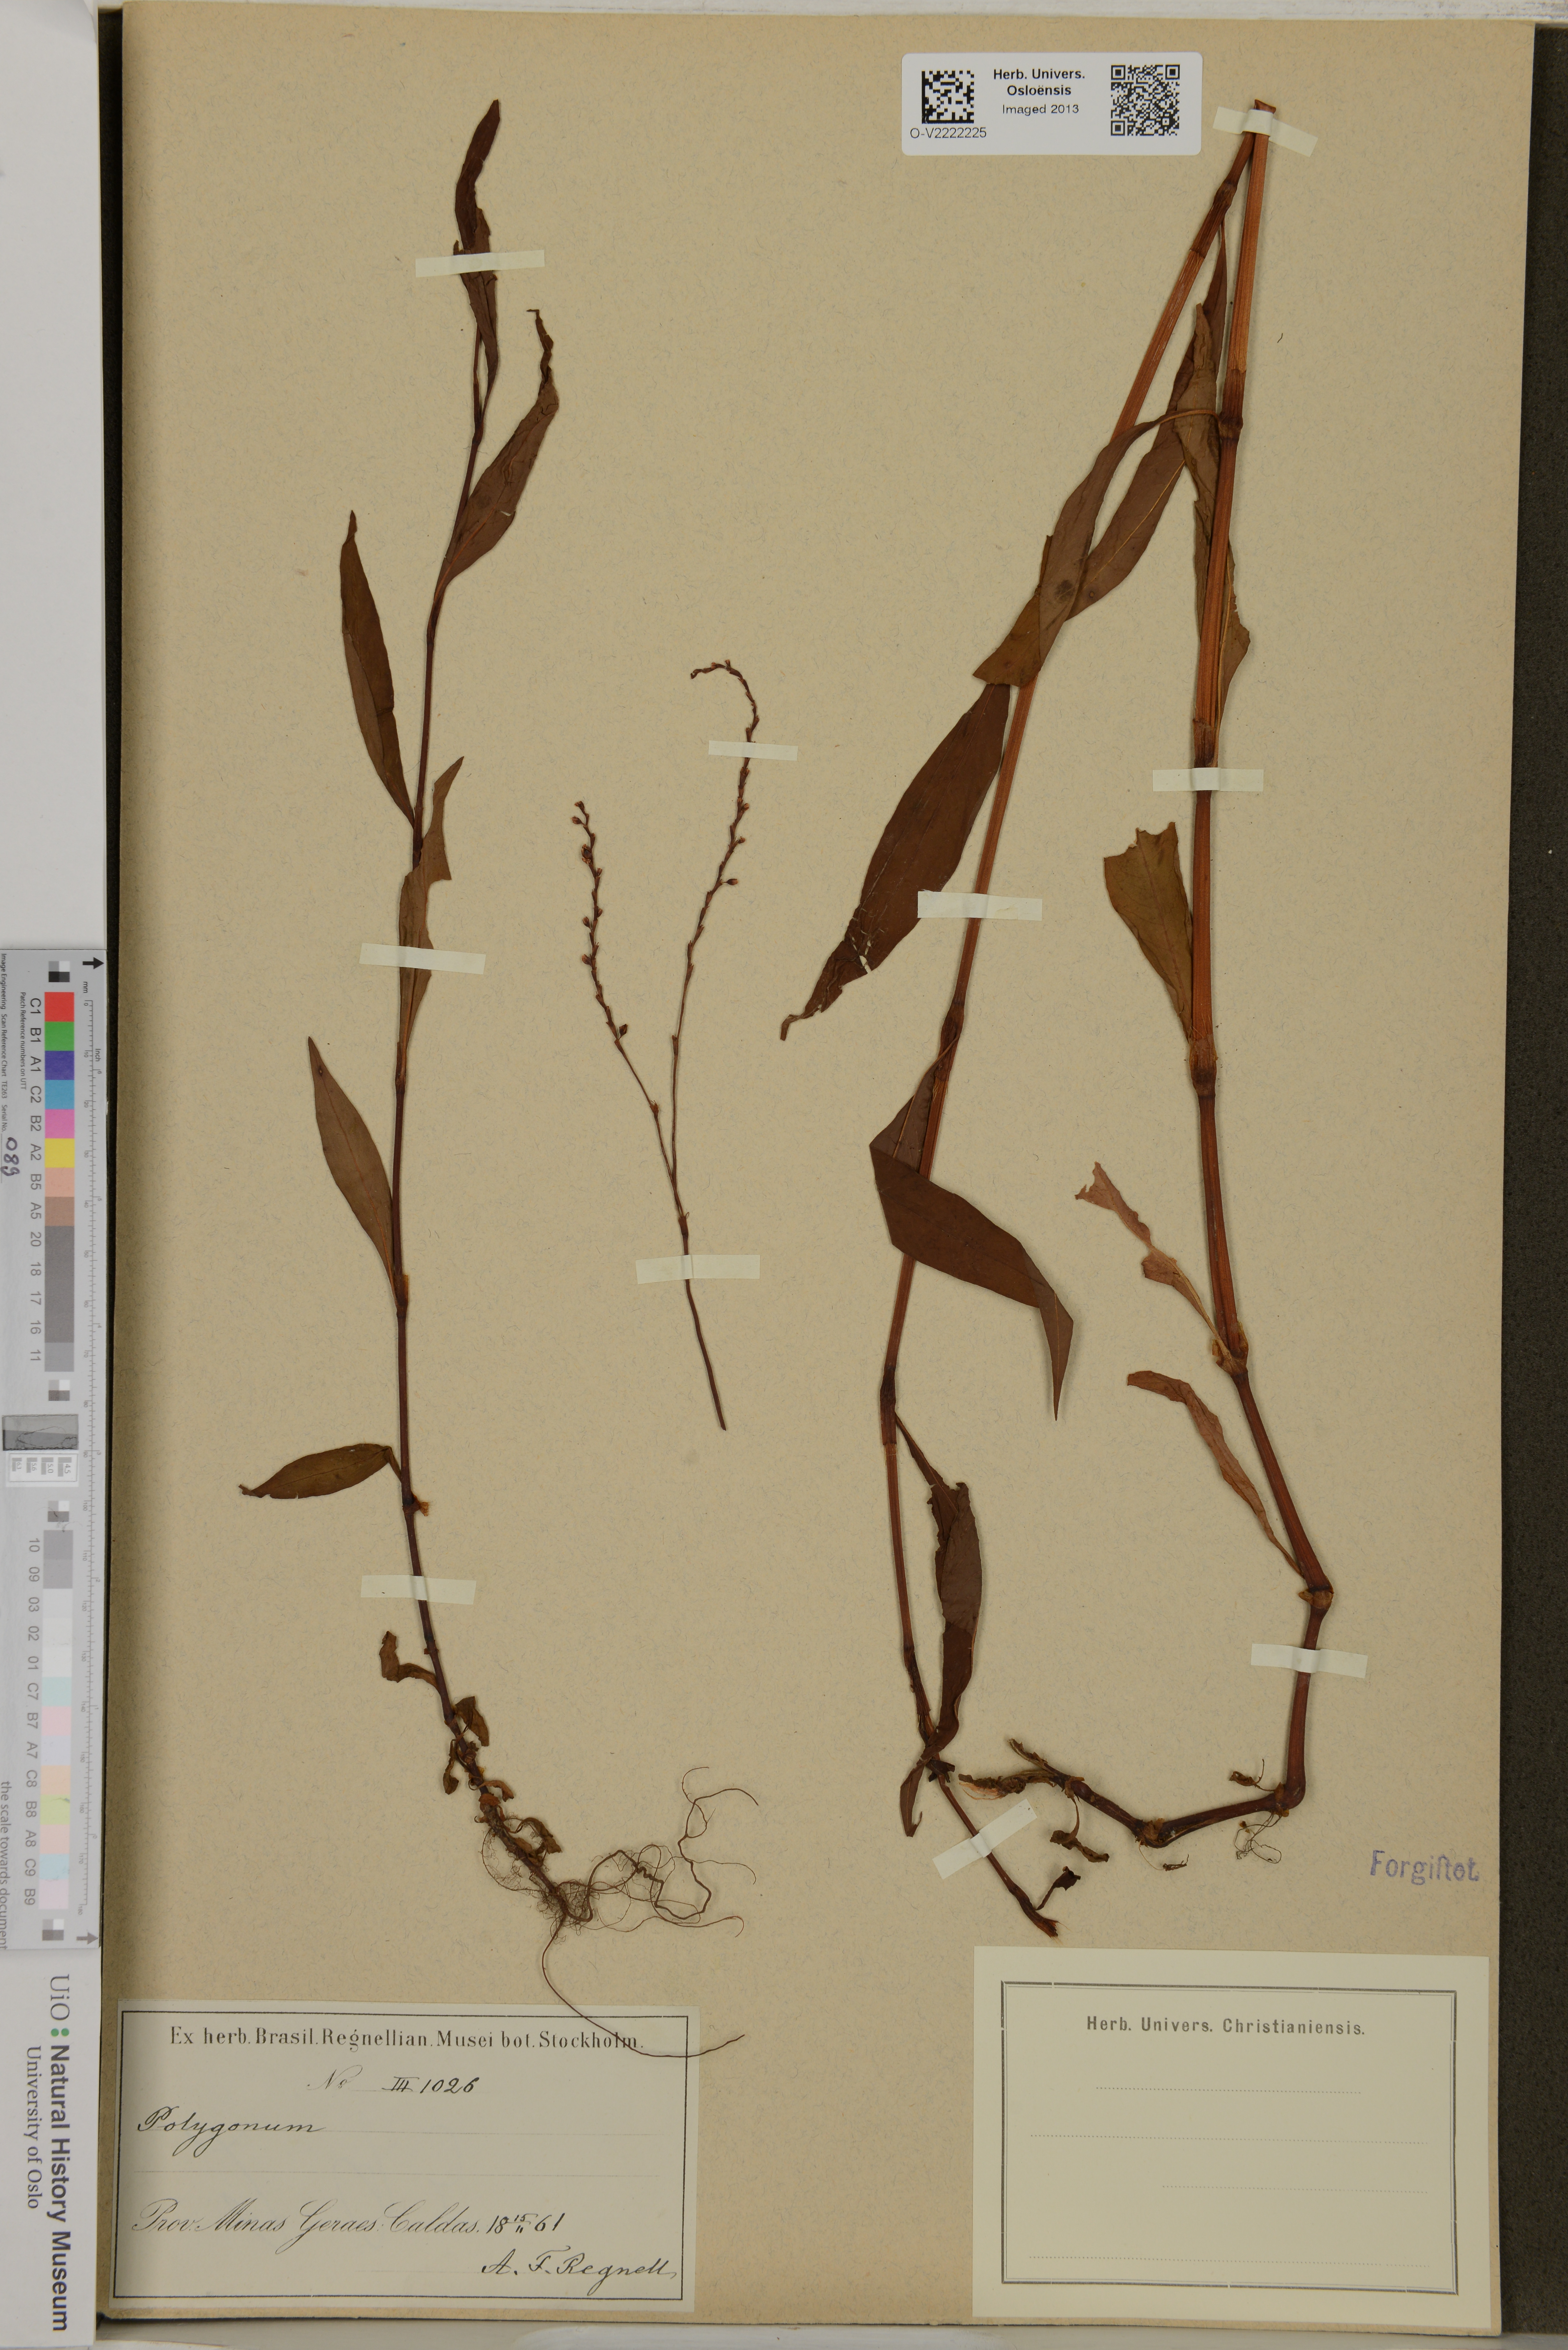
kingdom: Plantae
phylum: Tracheophyta
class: Magnoliopsida
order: Caryophyllales
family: Polygonaceae
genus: Polygonum
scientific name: Polygonum
